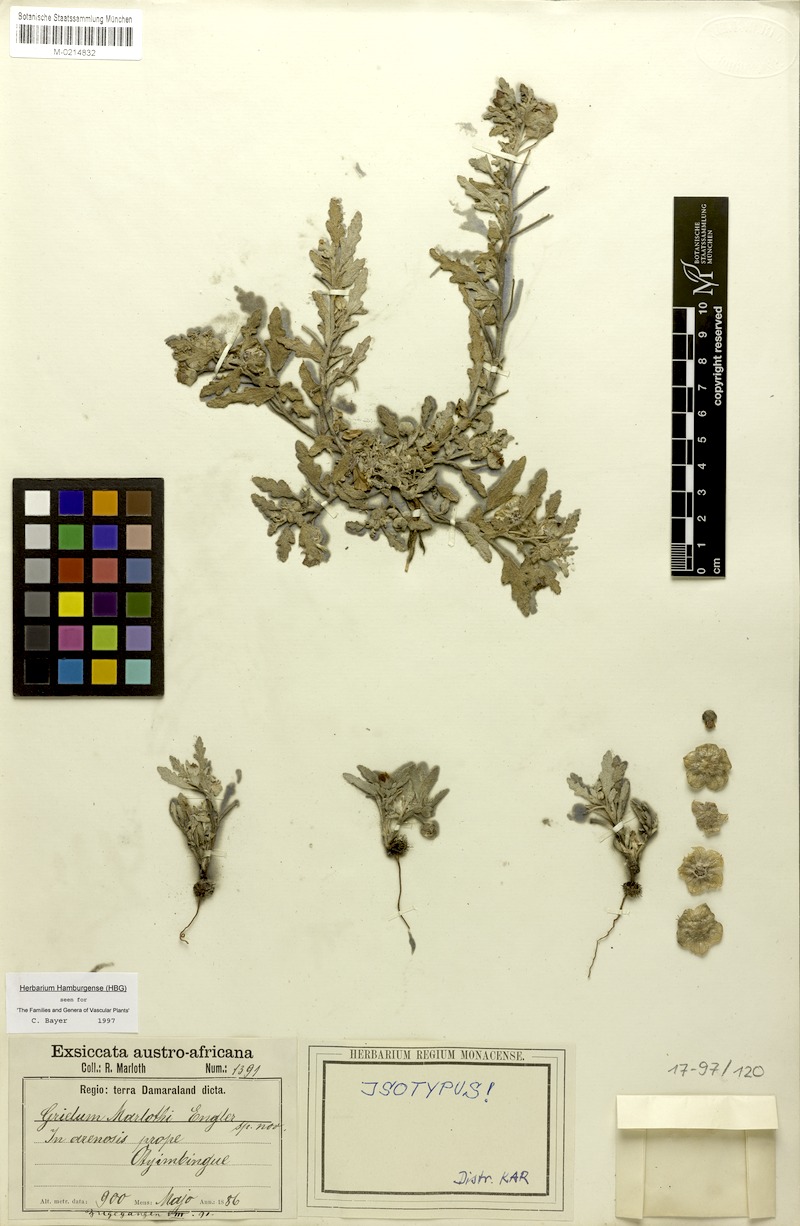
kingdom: Plantae
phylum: Tracheophyta
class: Magnoliopsida
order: Malvales
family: Neuradaceae
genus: Grielum
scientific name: Grielum sinuatum
